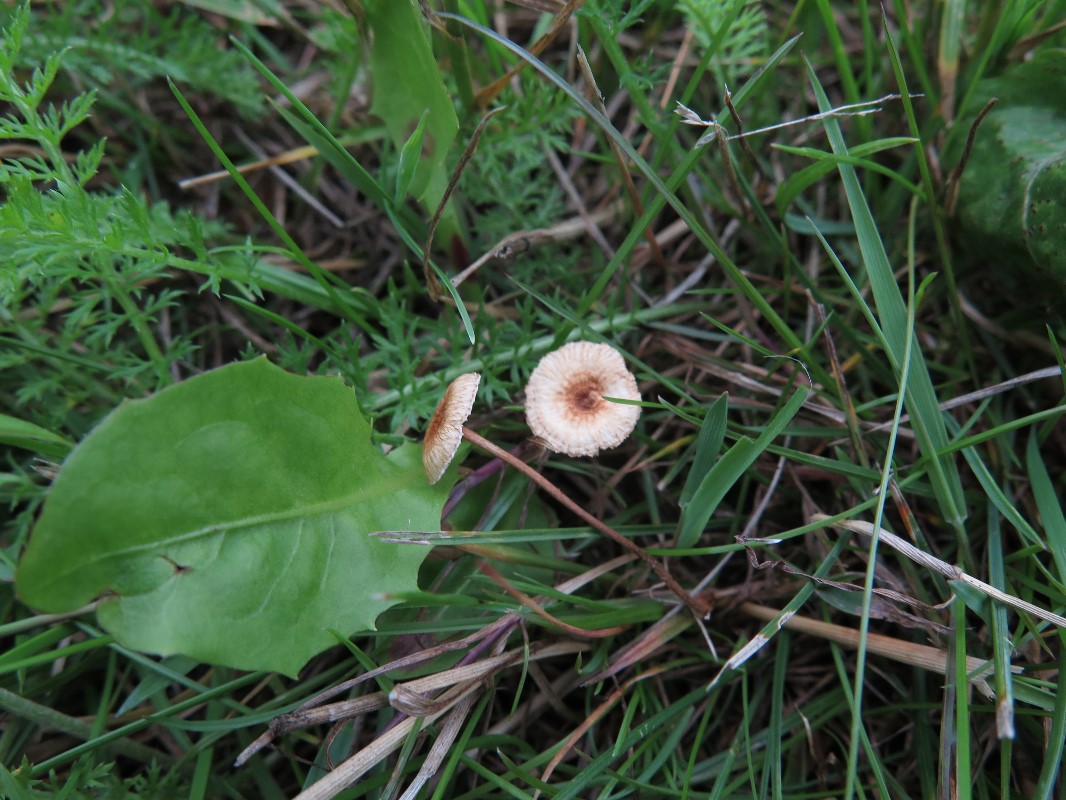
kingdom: Fungi
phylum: Basidiomycota
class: Agaricomycetes
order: Agaricales
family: Marasmiaceae
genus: Crinipellis
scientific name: Crinipellis scabella
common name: børstefod
